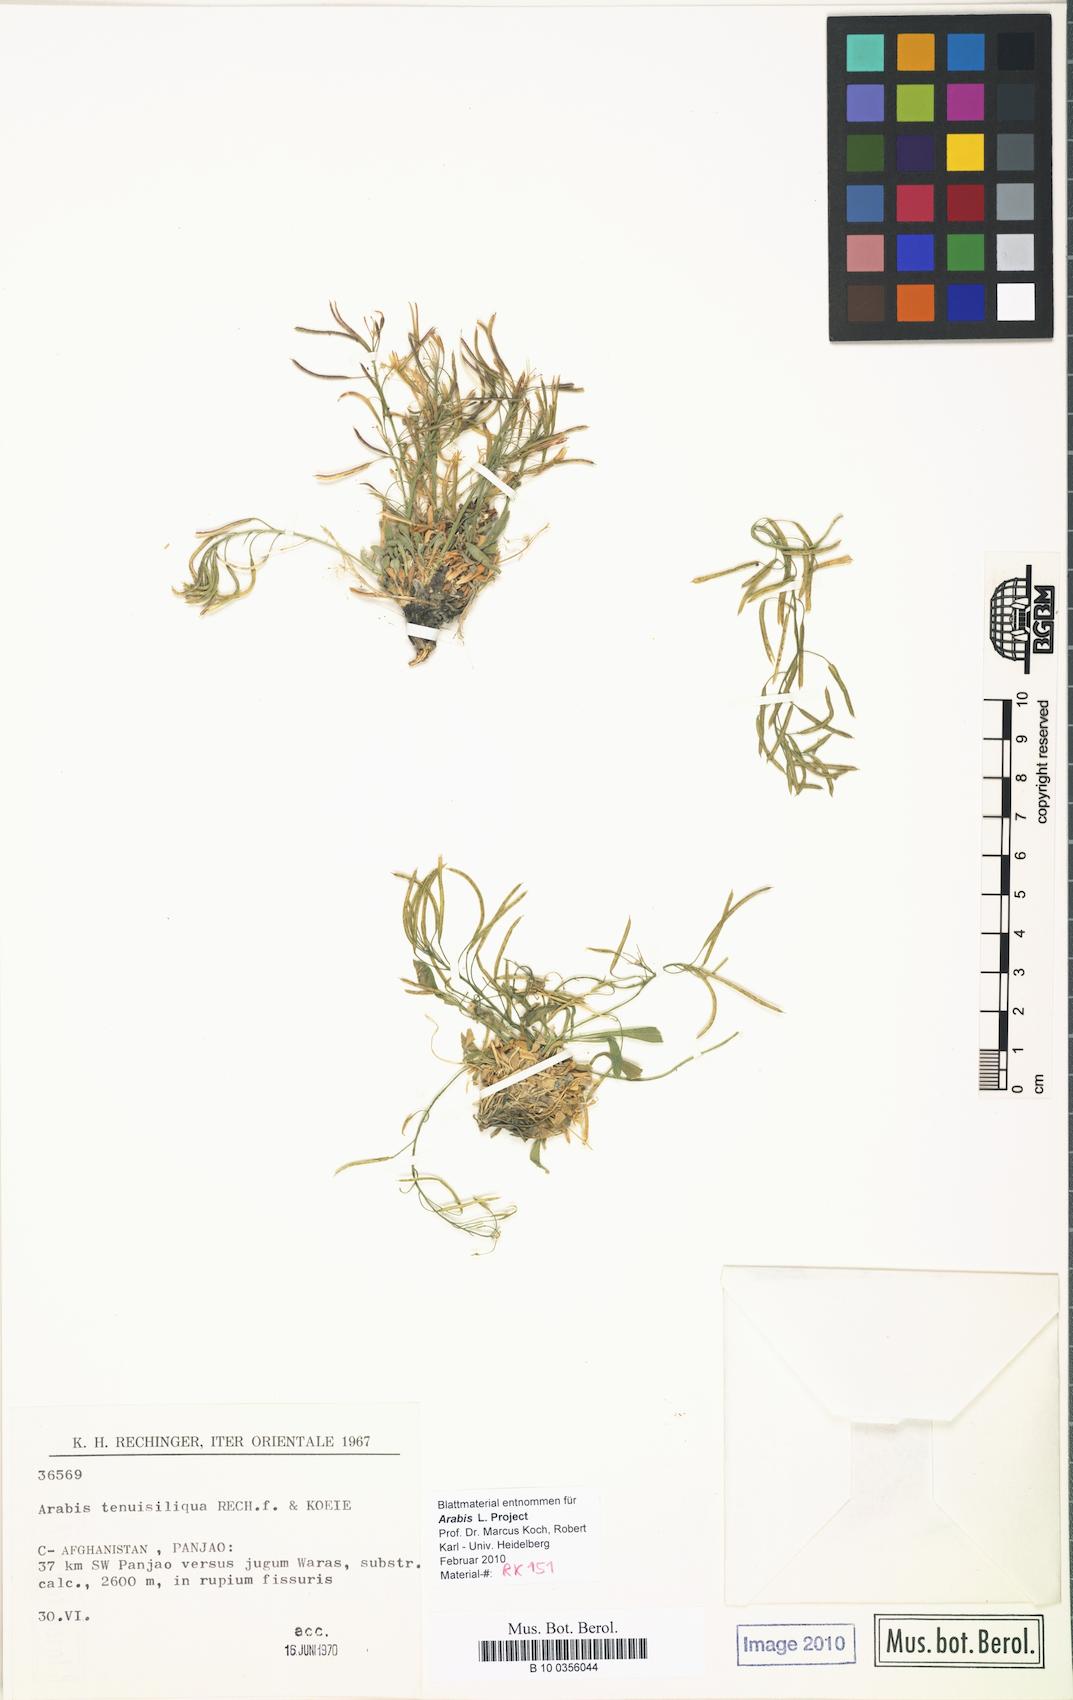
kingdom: Plantae
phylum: Tracheophyta
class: Magnoliopsida
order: Brassicales
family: Brassicaceae
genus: Crucihimalaya
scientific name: Crucihimalaya tenuisiliqua
